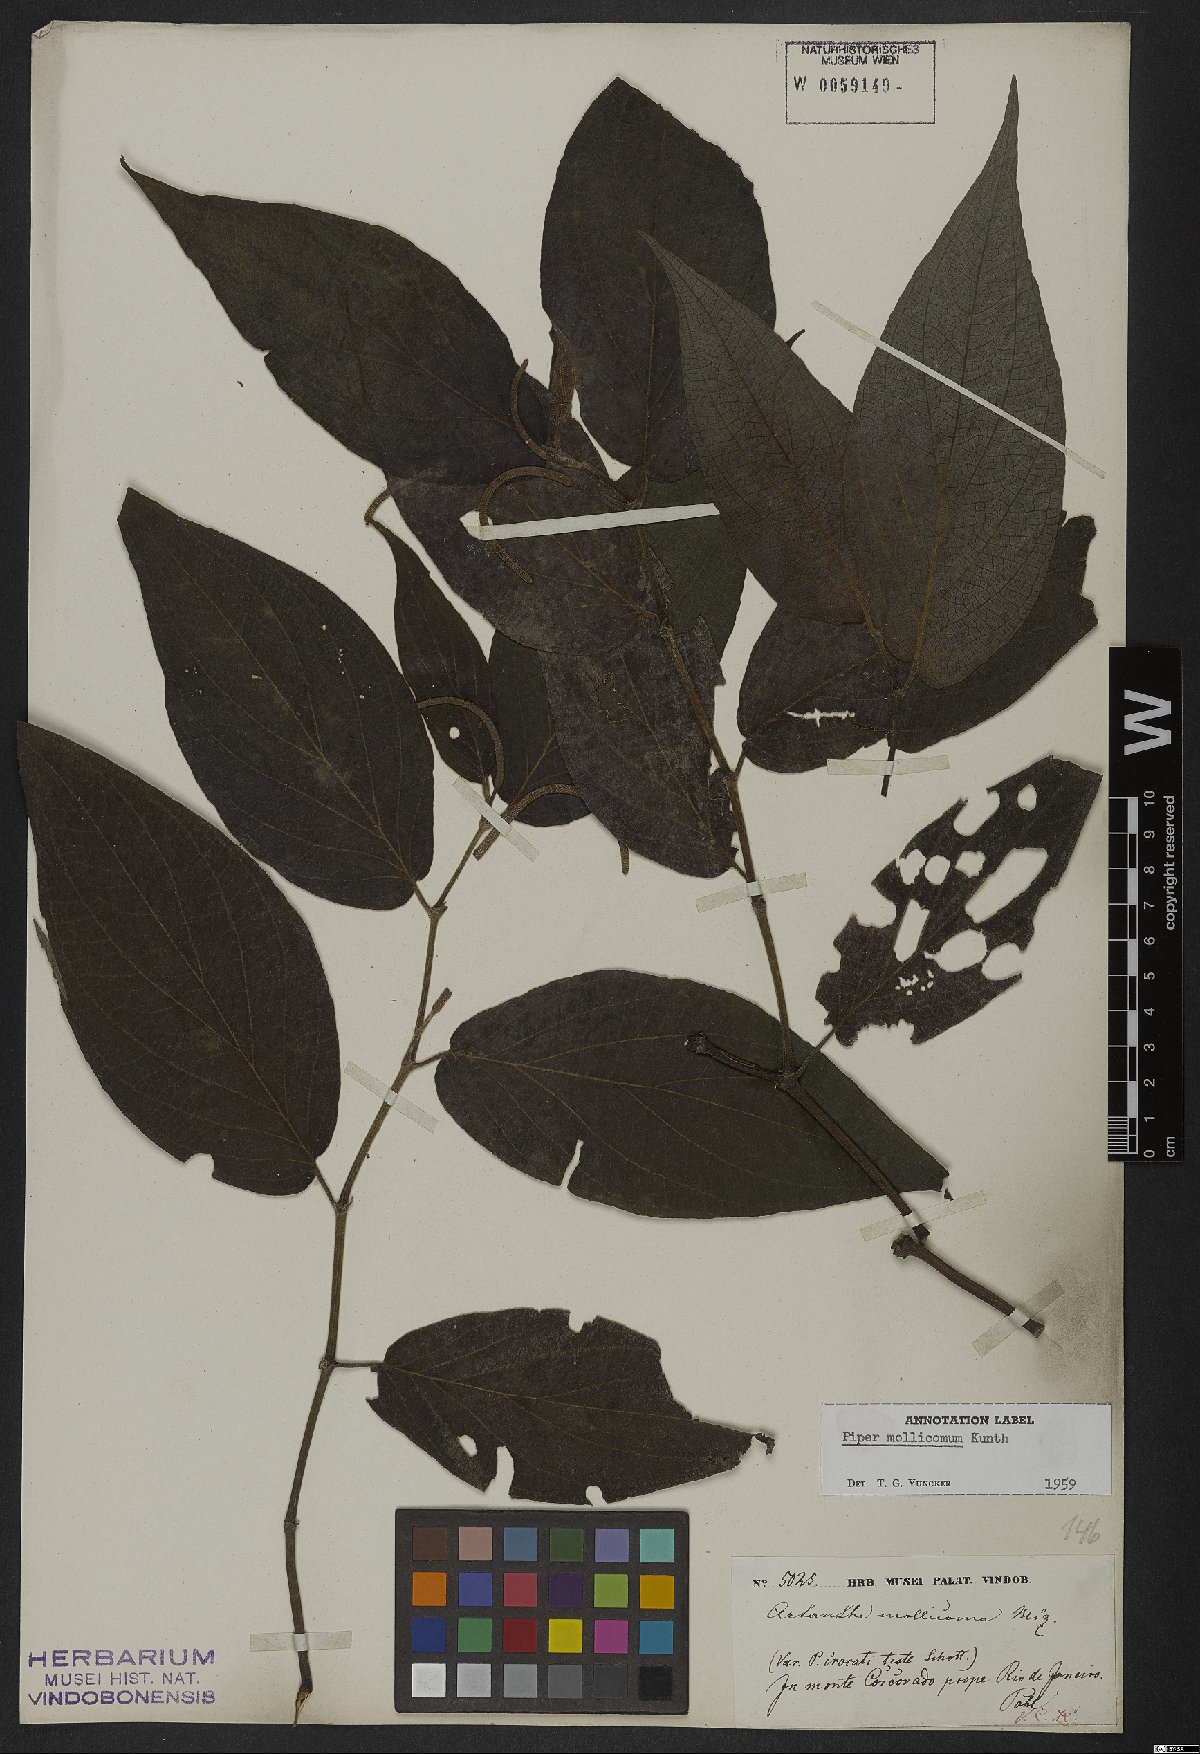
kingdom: Plantae
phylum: Tracheophyta
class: Magnoliopsida
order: Piperales
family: Piperaceae
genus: Piper
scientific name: Piper mollicomum
